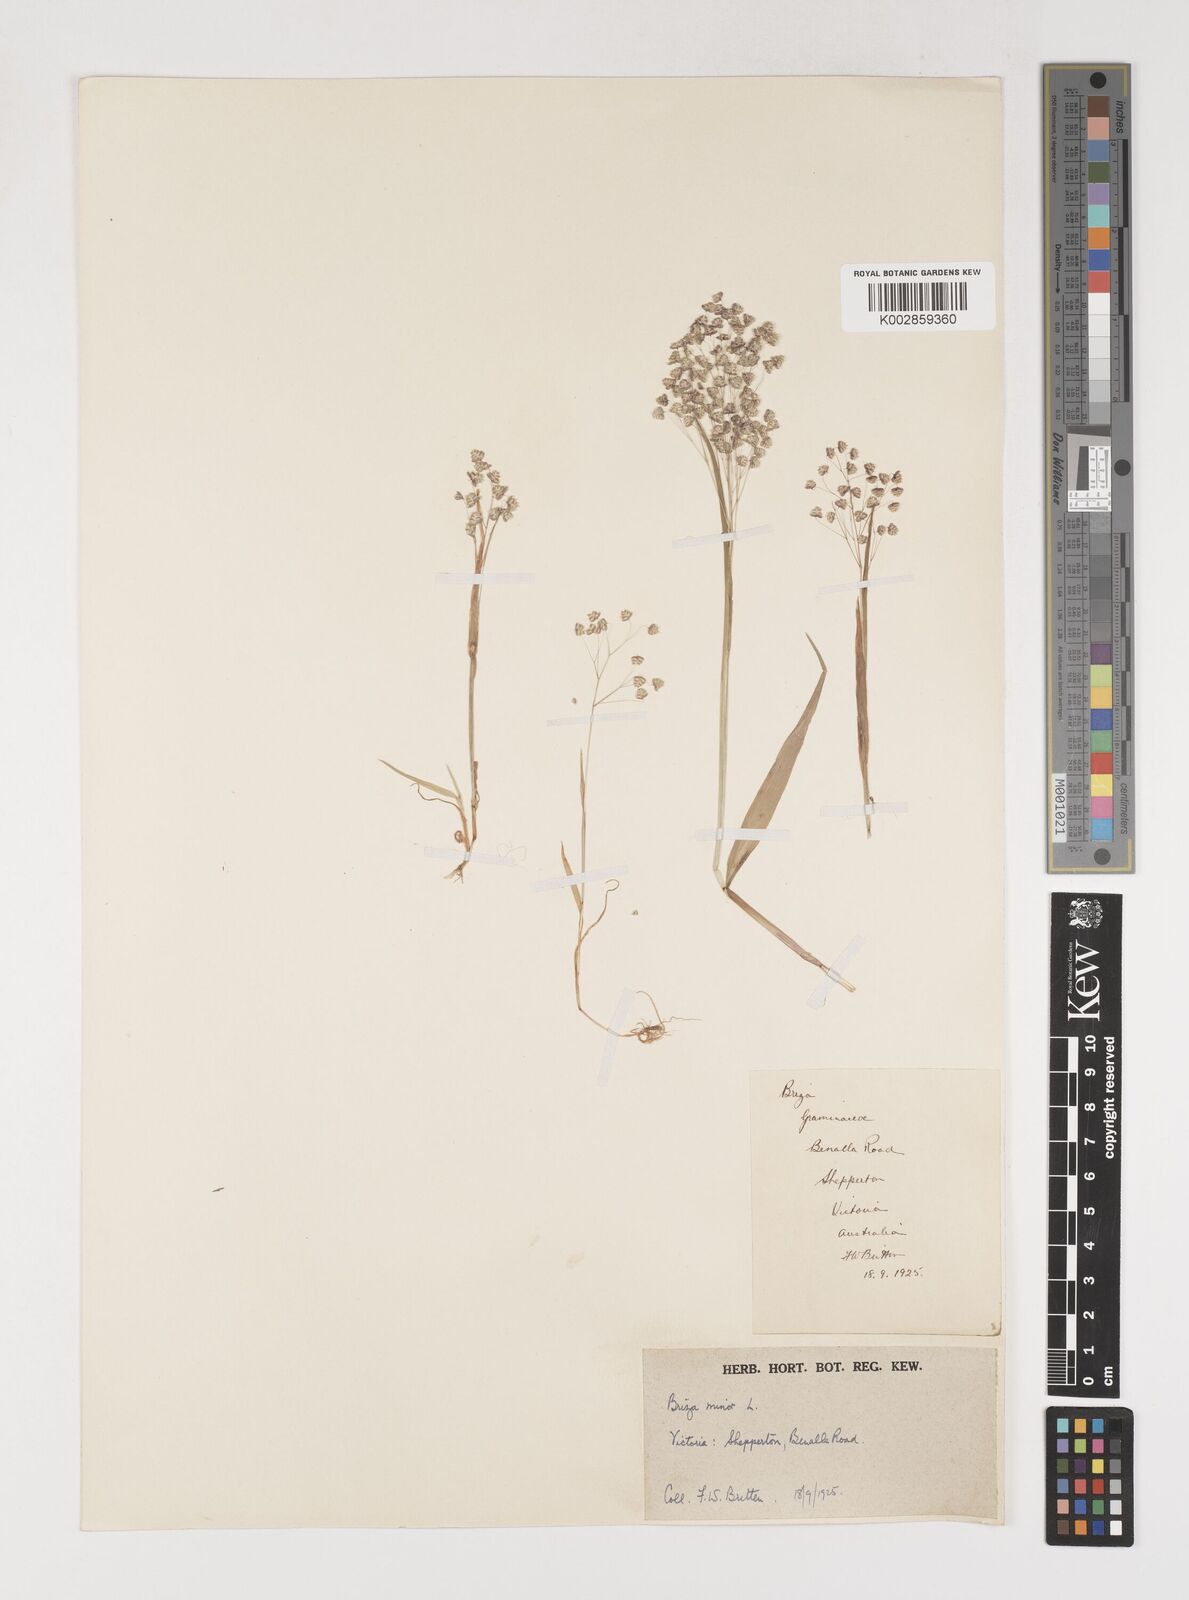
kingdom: Plantae
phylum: Tracheophyta
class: Liliopsida
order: Poales
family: Poaceae
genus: Briza
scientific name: Briza minor
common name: Lesser quaking-grass
